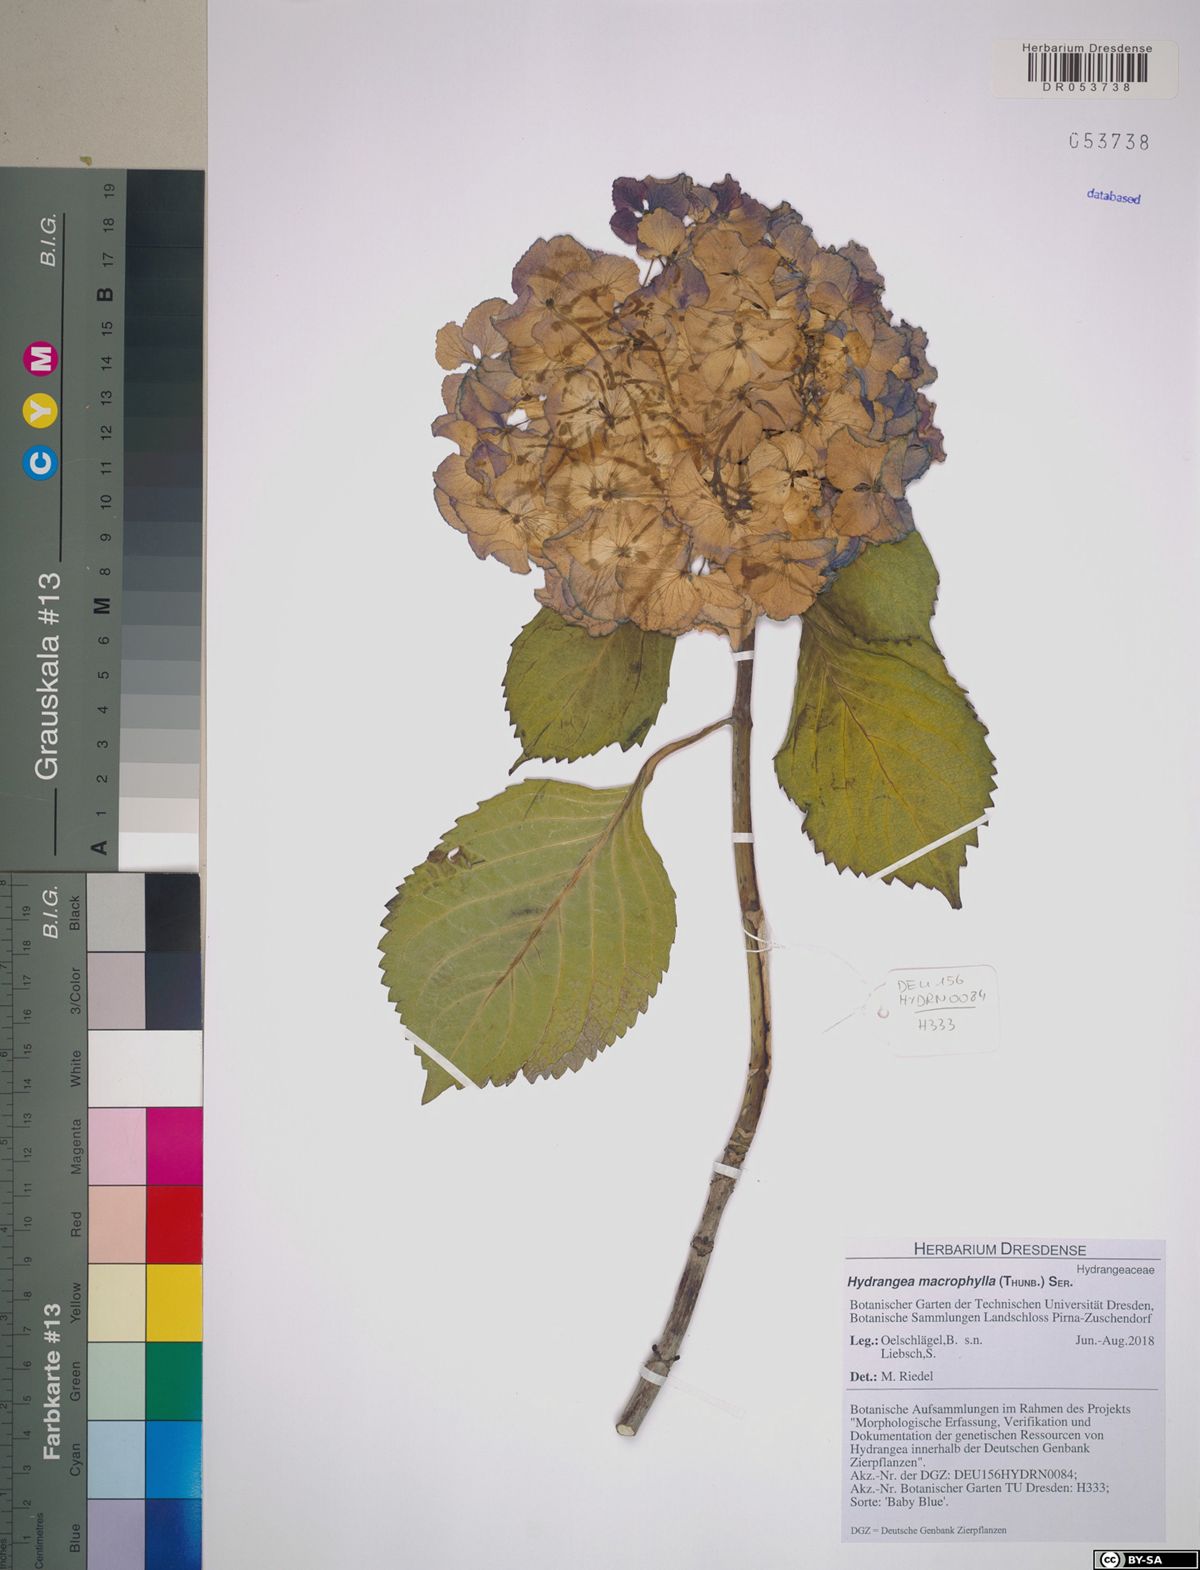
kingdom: Plantae
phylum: Tracheophyta
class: Magnoliopsida
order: Cornales
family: Hydrangeaceae
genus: Hydrangea
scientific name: Hydrangea macrophylla
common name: Hydrangea
